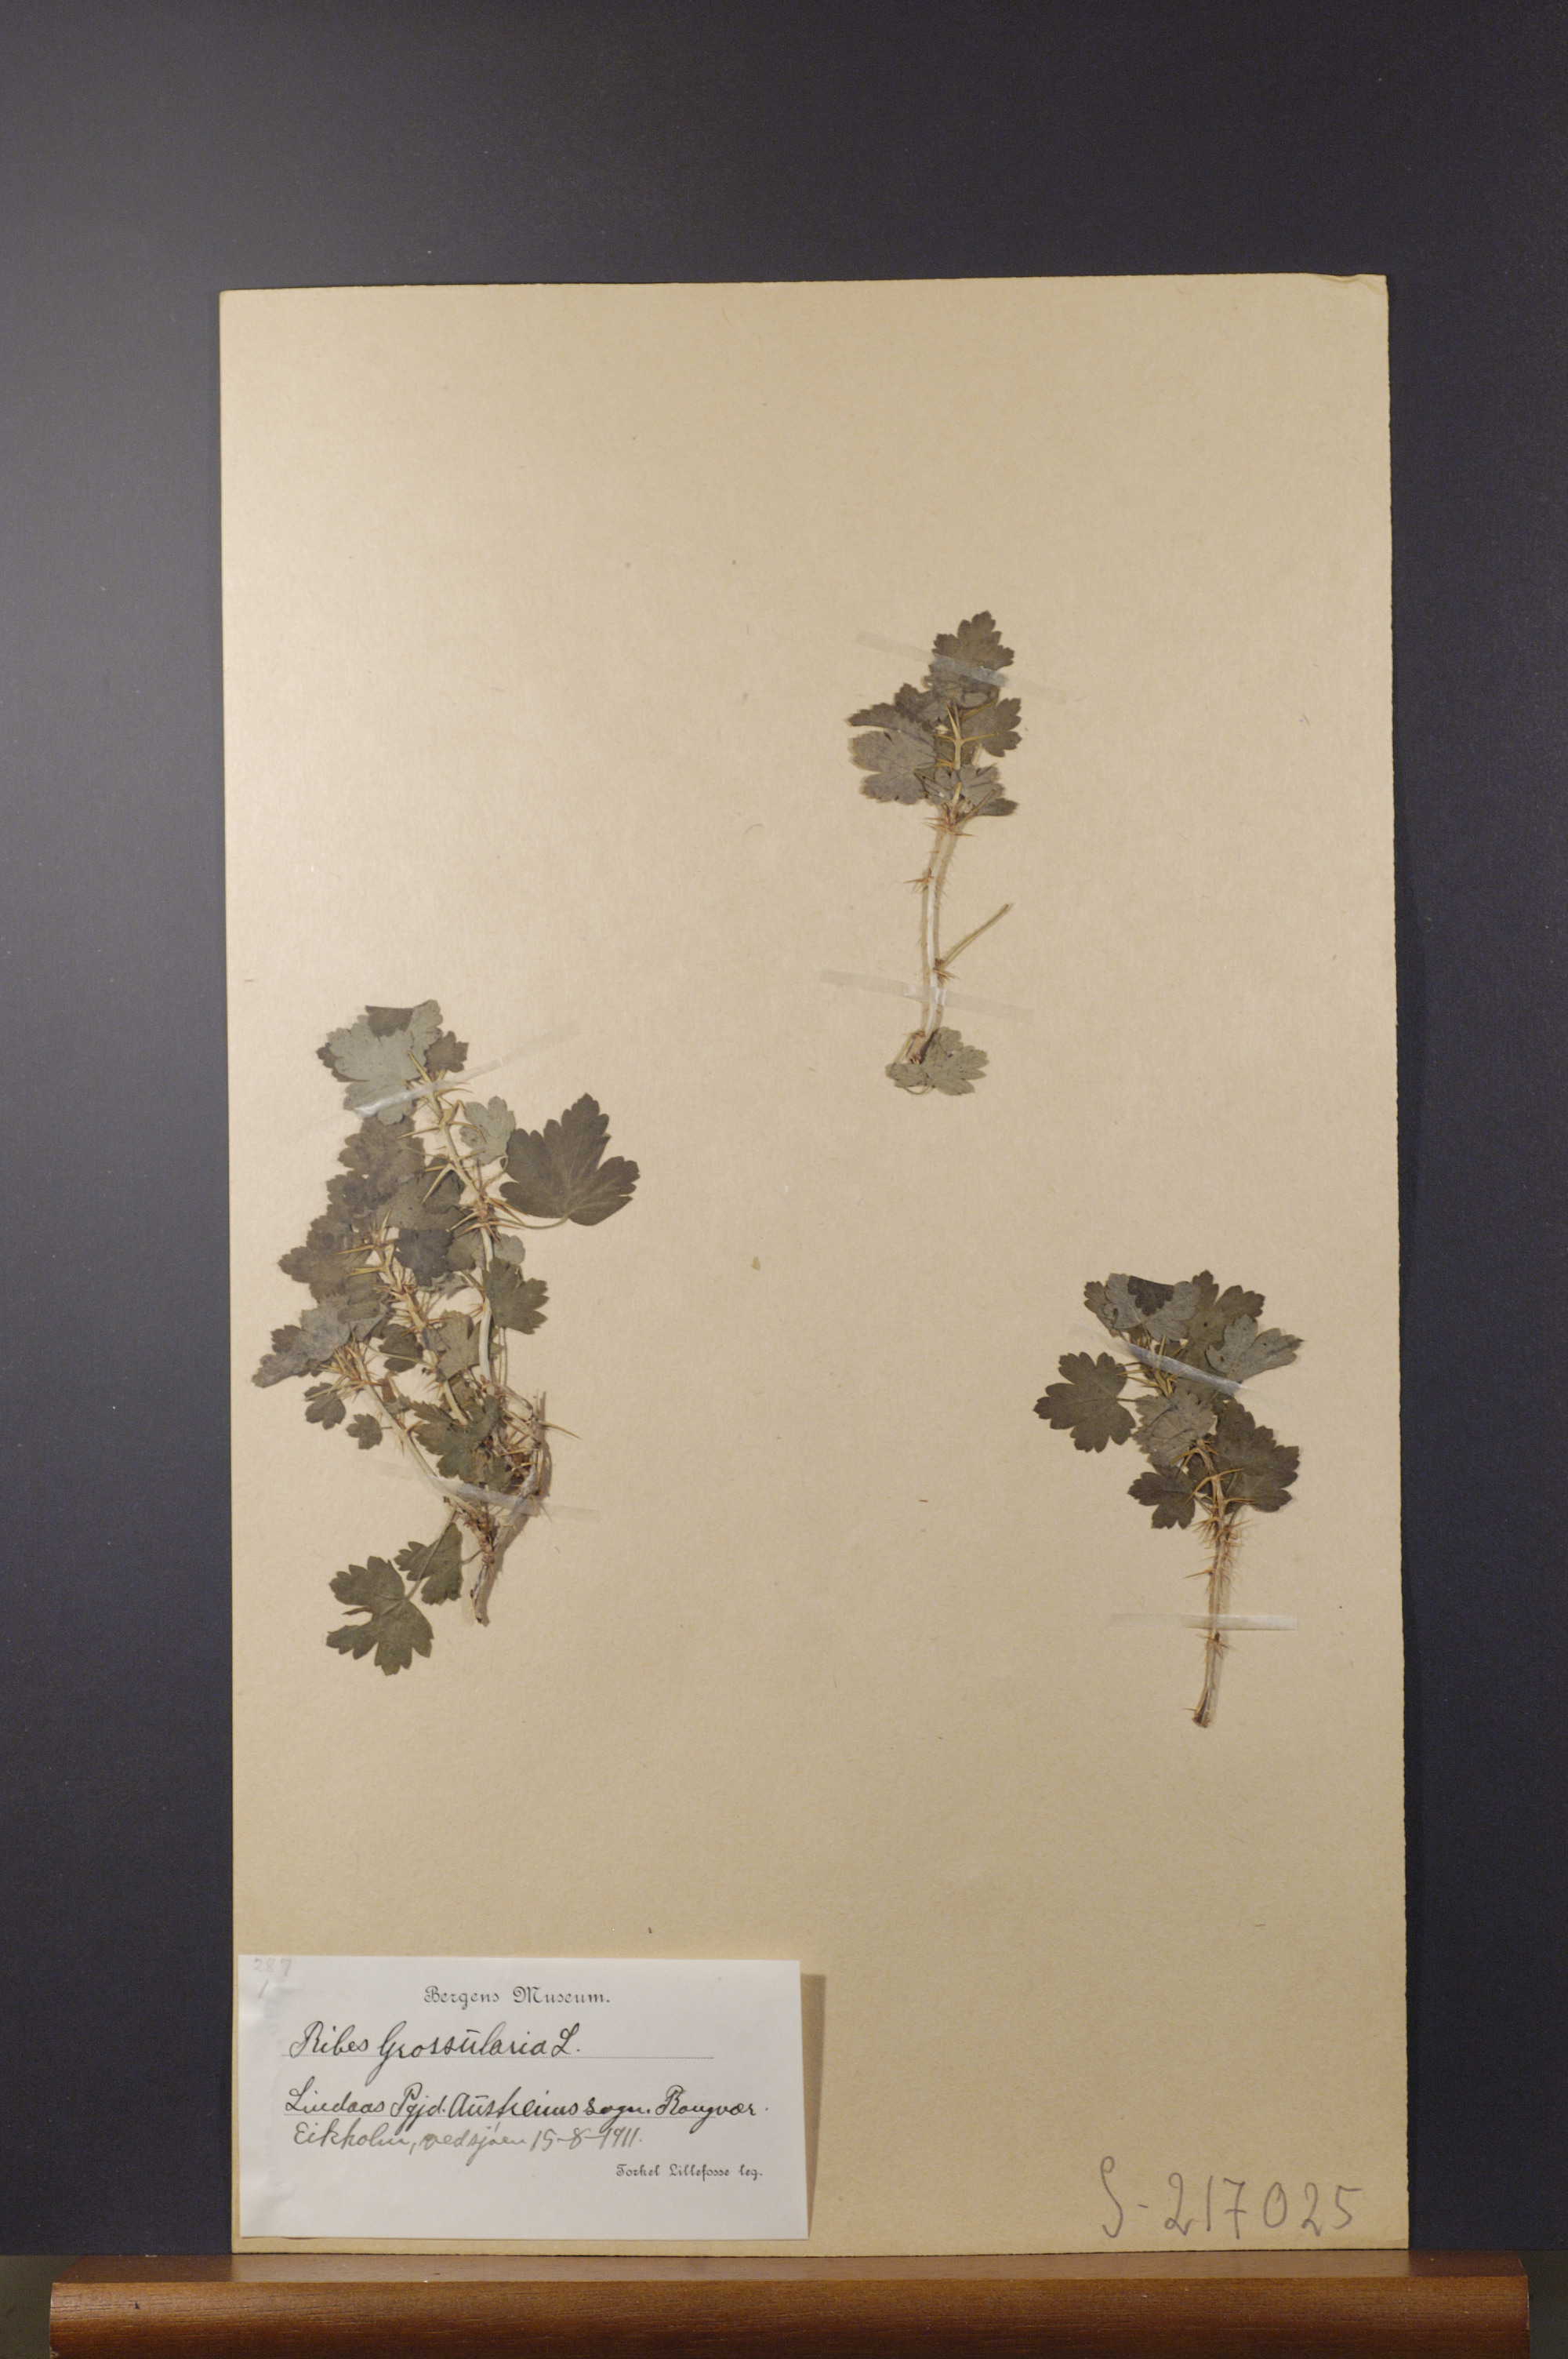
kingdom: Plantae
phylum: Tracheophyta
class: Magnoliopsida
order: Saxifragales
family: Grossulariaceae
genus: Ribes
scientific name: Ribes uva-crispa
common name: Gooseberry
